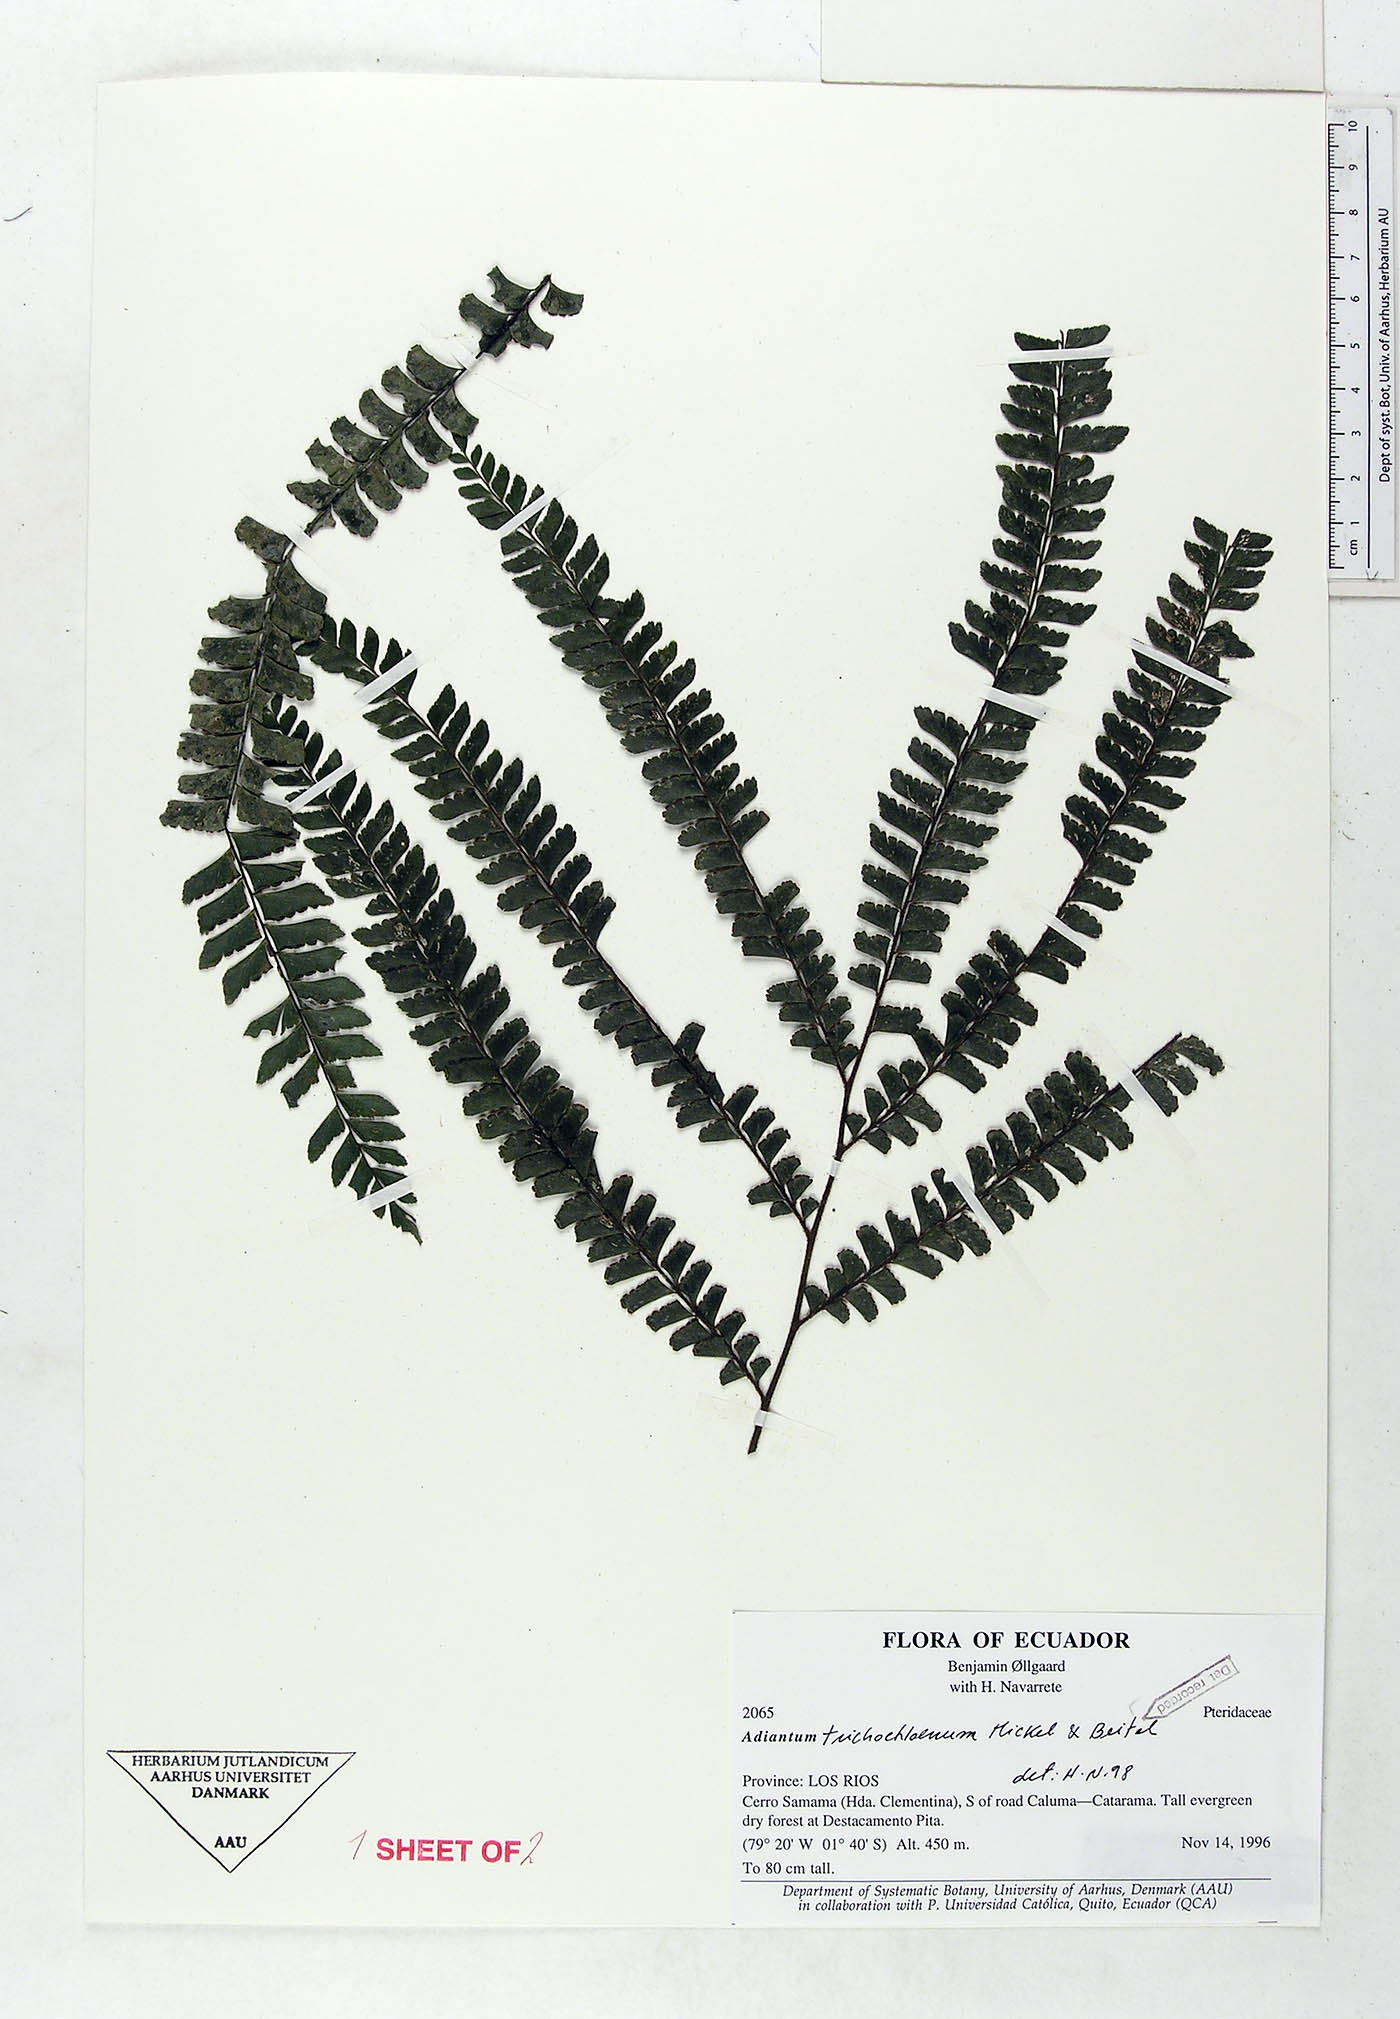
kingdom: Plantae
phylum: Tracheophyta
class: Polypodiopsida
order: Polypodiales
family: Pteridaceae
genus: Adiantum
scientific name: Adiantum trichochlaenum
